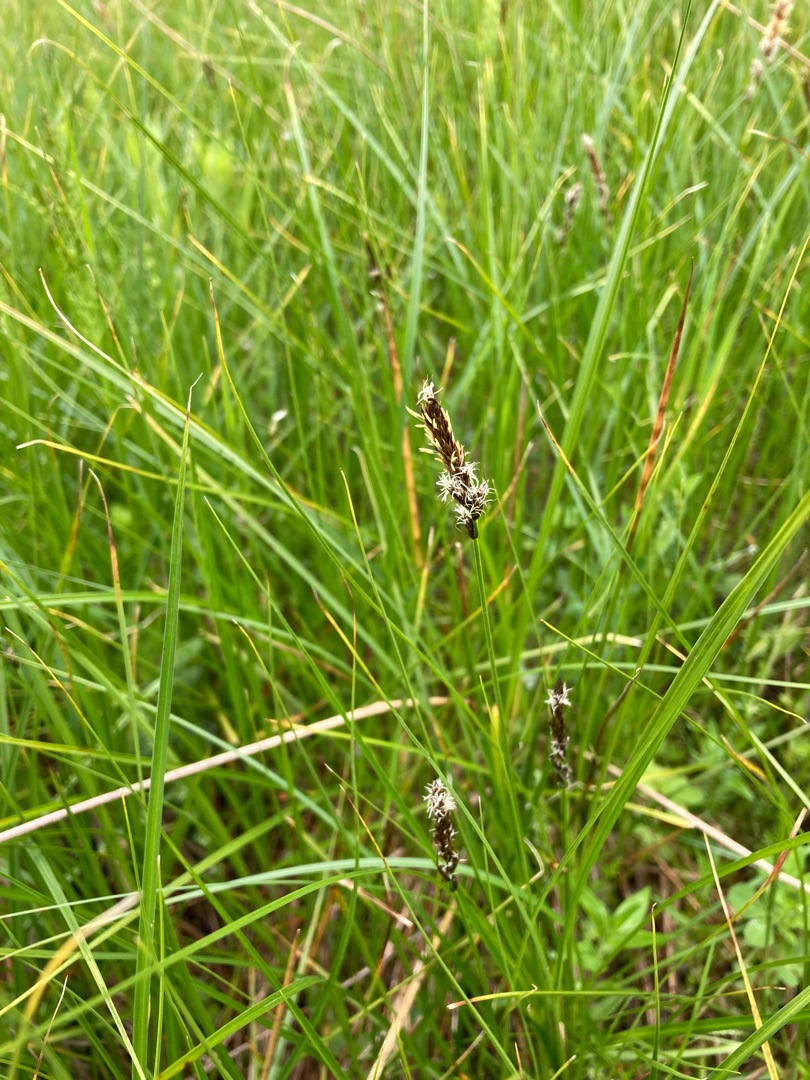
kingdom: Plantae
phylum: Tracheophyta
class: Liliopsida
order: Poales
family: Cyperaceae
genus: Carex
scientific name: Carex disticha
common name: Toradet star
